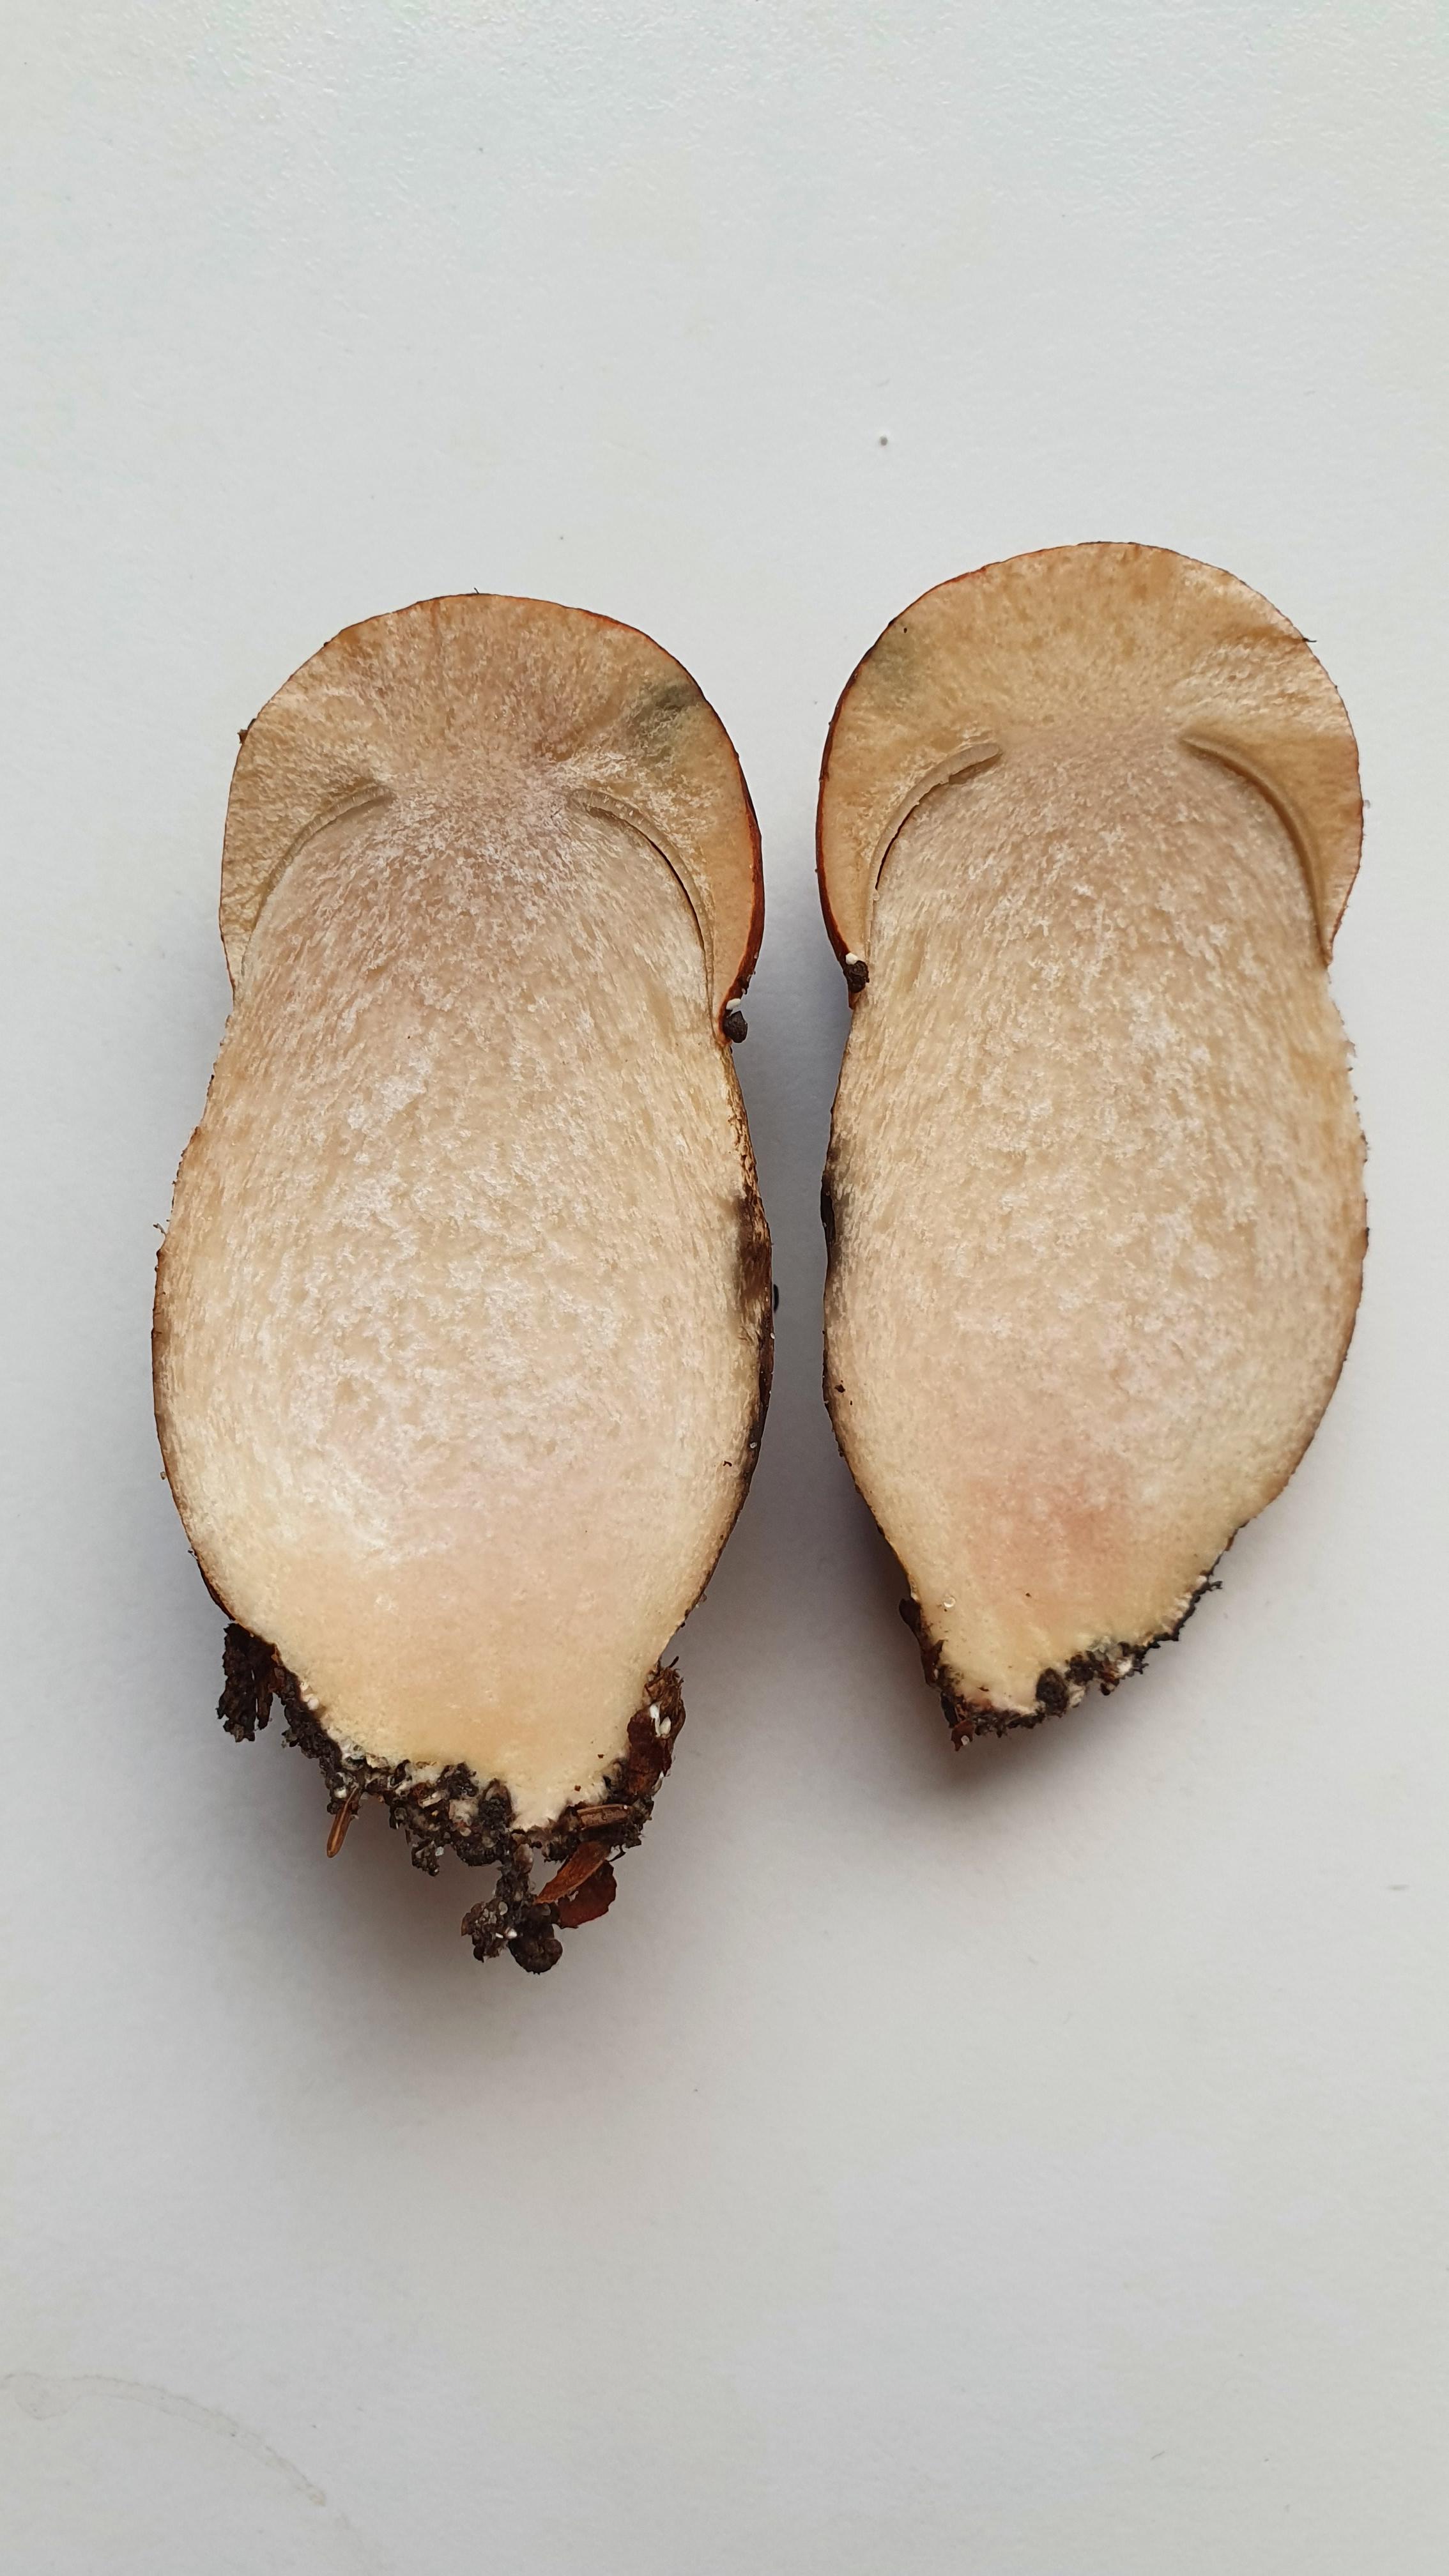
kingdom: Fungi
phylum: Basidiomycota
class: Agaricomycetes
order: Boletales
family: Boletaceae
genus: Leccinum
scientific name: Leccinum albostipitatum
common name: aspe-skælrørhat
